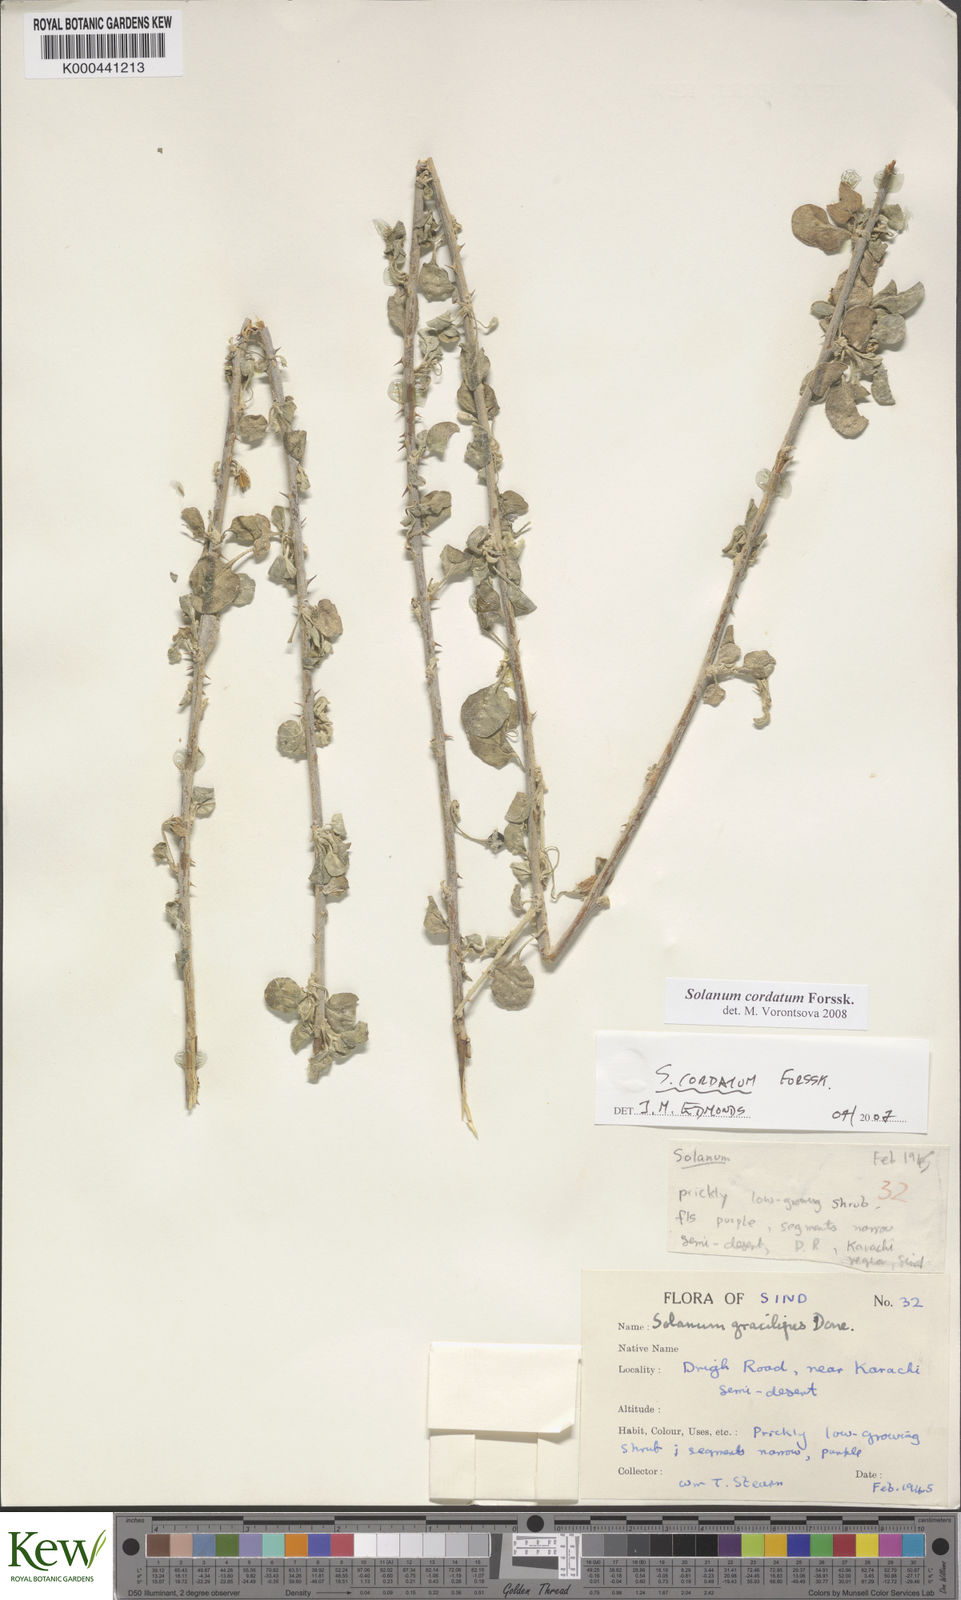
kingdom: Plantae
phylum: Tracheophyta
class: Magnoliopsida
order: Solanales
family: Solanaceae
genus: Solanum
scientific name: Solanum cordatum
